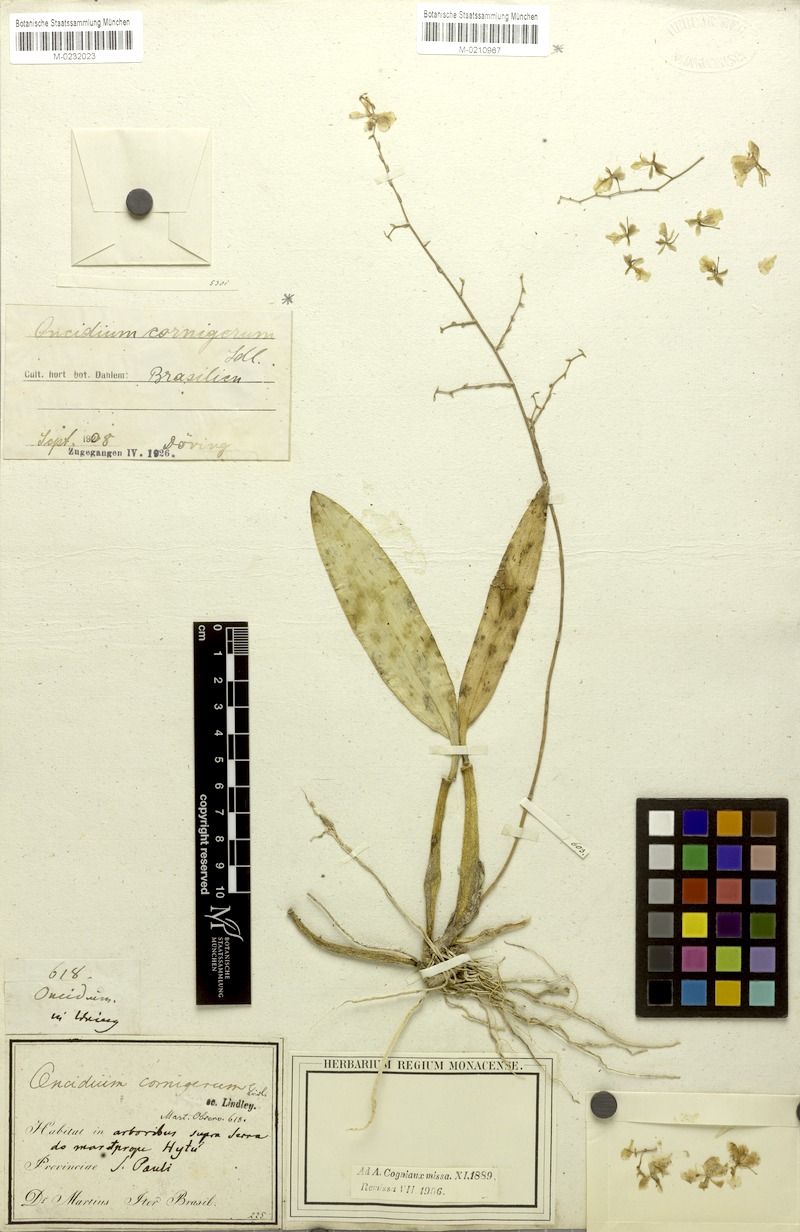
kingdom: Plantae
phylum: Tracheophyta
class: Liliopsida
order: Asparagales
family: Orchidaceae
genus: Gomesa
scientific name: Gomesa cornigera
